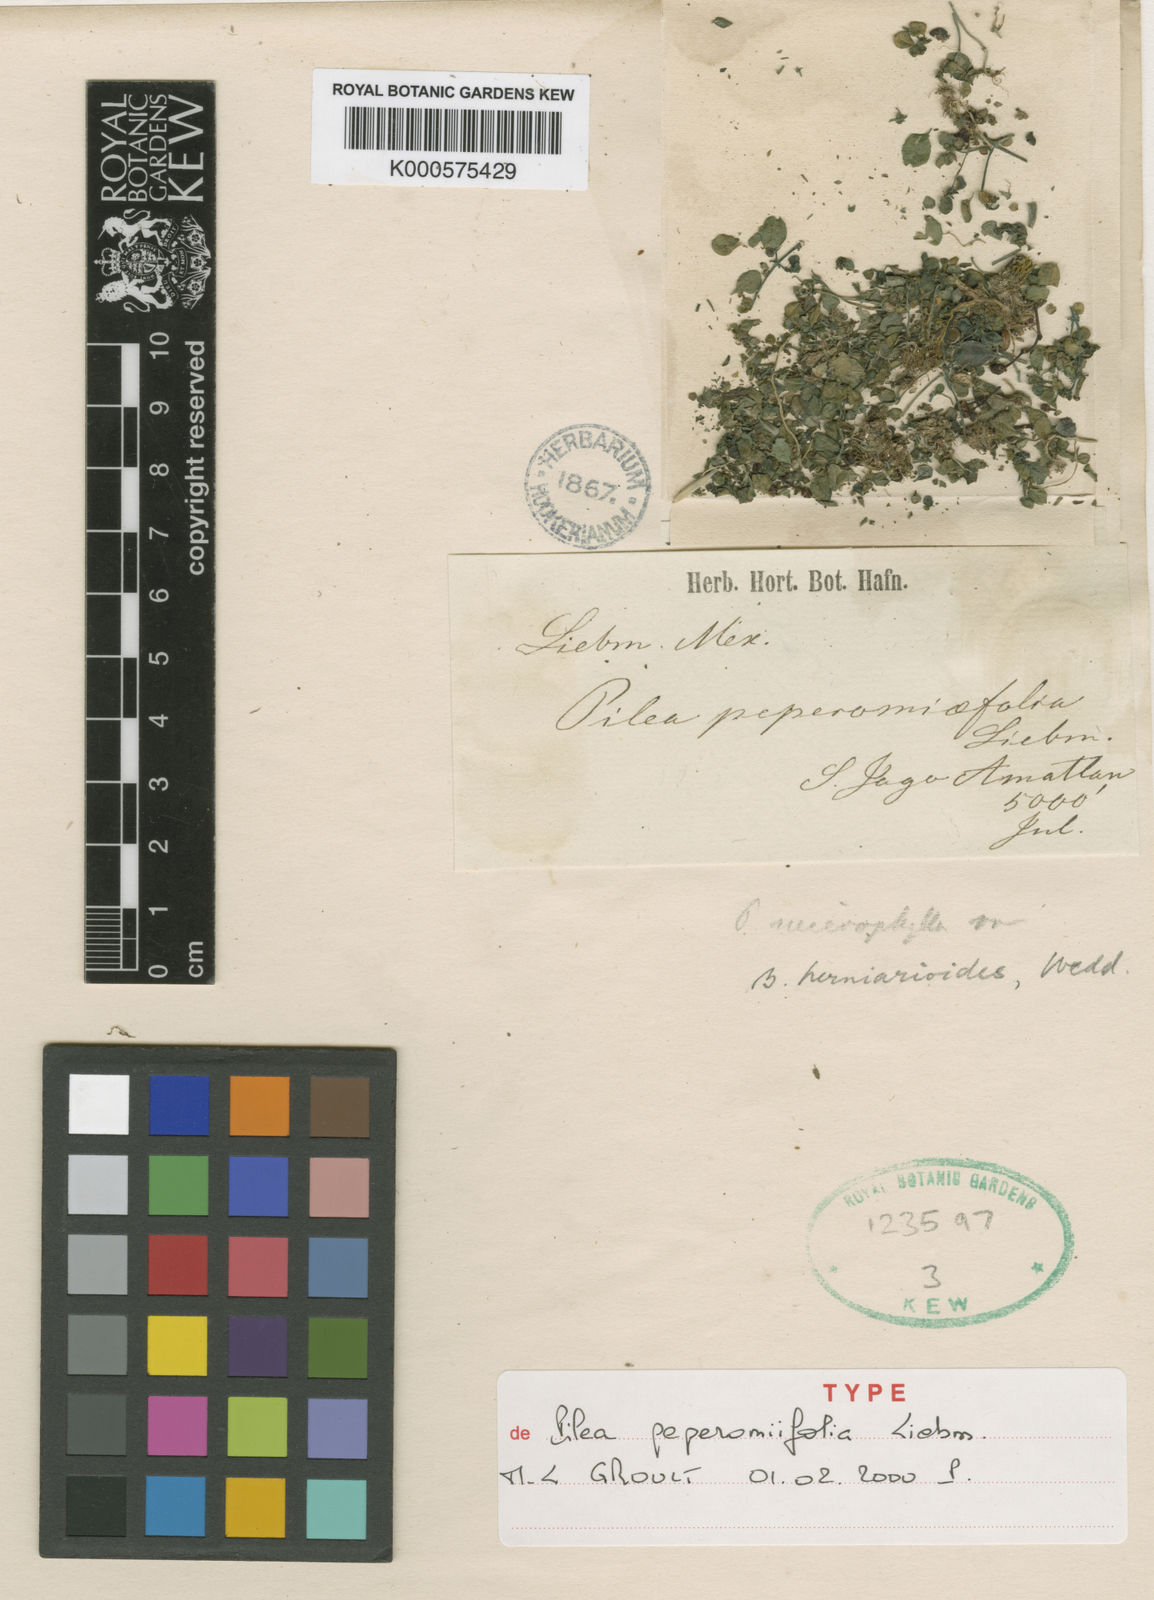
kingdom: Plantae
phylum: Tracheophyta
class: Magnoliopsida
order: Rosales
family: Urticaceae
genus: Pilea
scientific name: Pilea herniarioides
